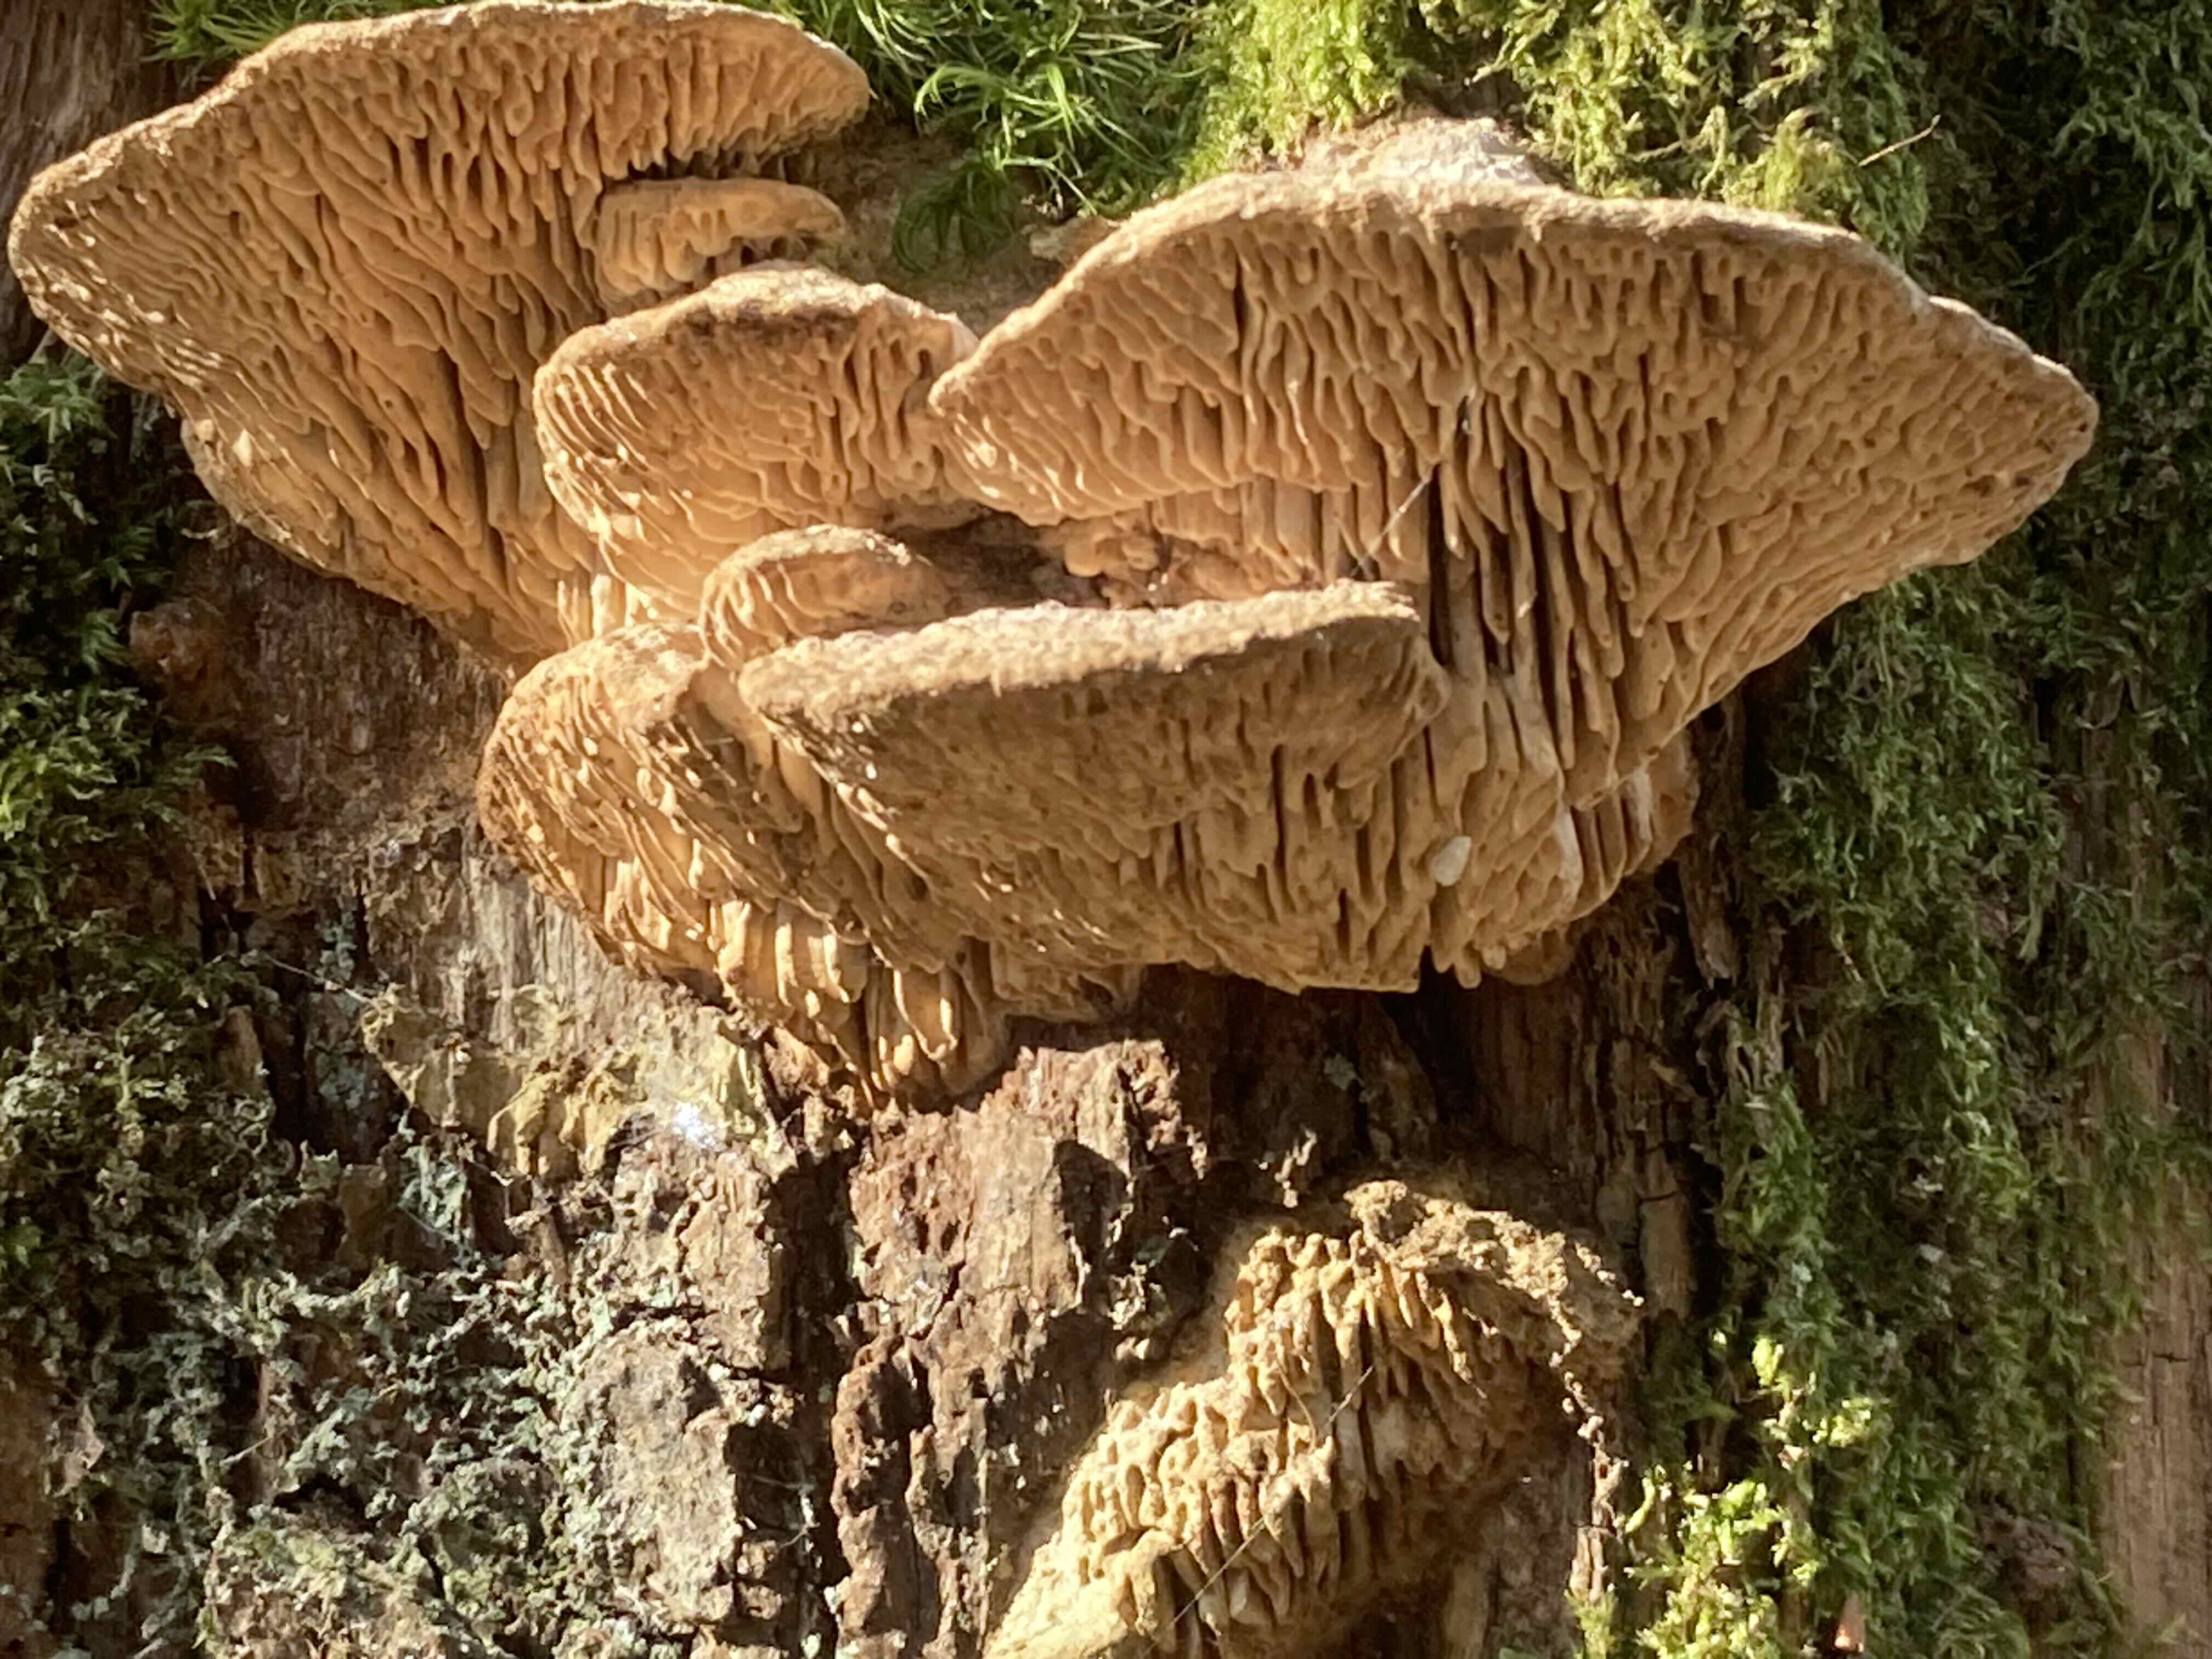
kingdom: Fungi
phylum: Basidiomycota
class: Agaricomycetes
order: Polyporales
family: Fomitopsidaceae
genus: Daedalea
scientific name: Daedalea quercina
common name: ege-labyrintsvamp
